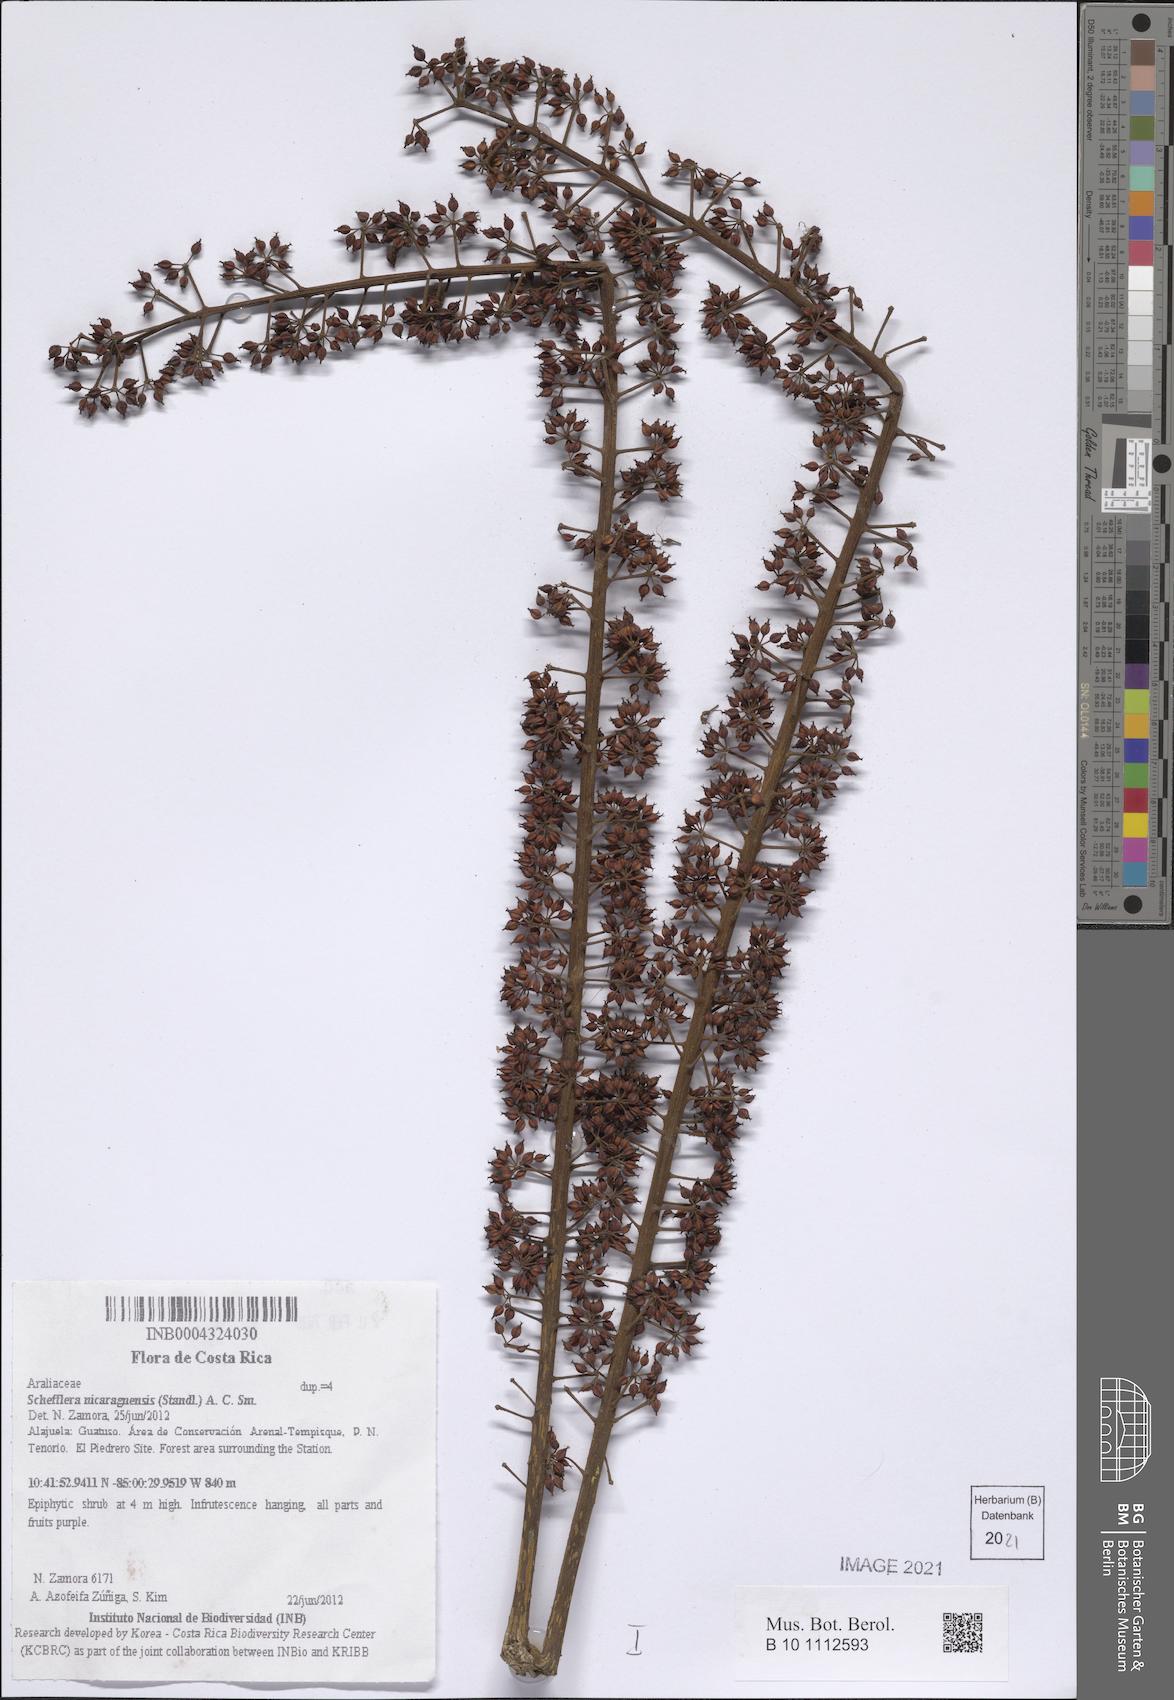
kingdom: Plantae
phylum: Tracheophyta
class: Magnoliopsida
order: Apiales
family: Araliaceae
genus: Sciodaphyllum
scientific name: Sciodaphyllum sphaerocoma
